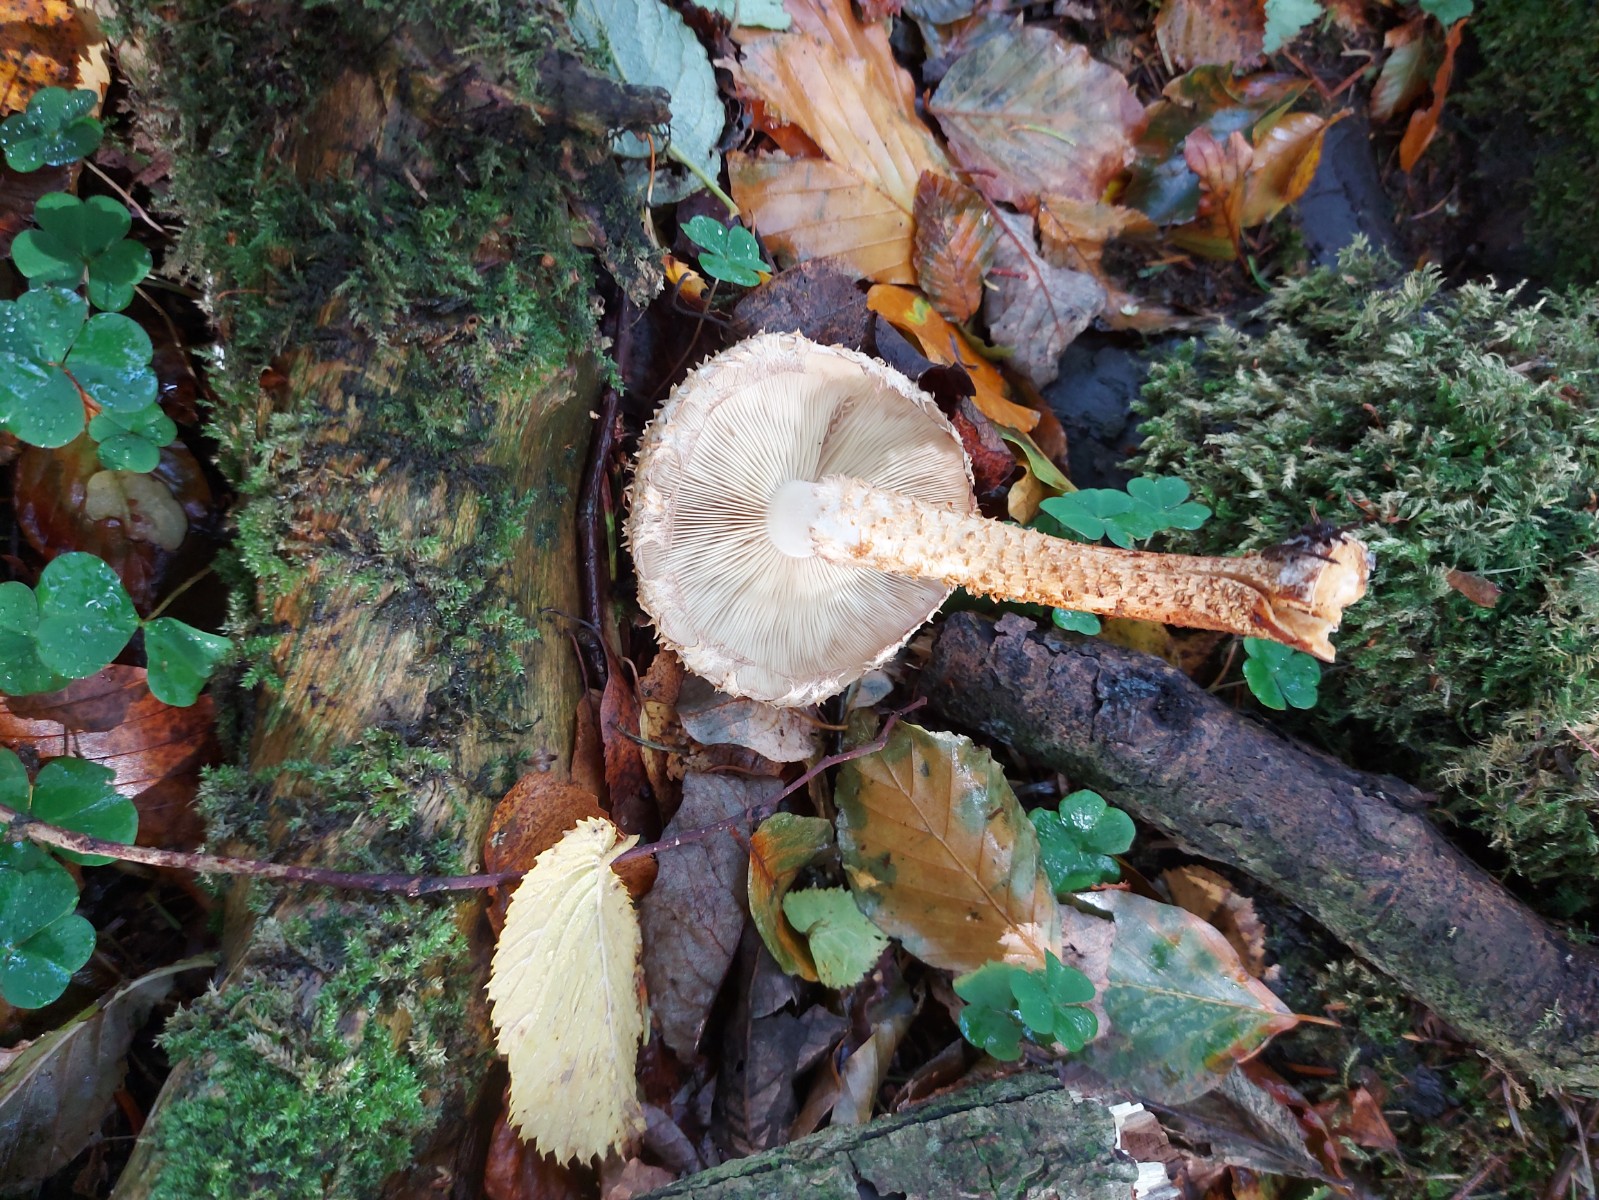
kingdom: Fungi
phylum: Basidiomycota
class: Agaricomycetes
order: Agaricales
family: Strophariaceae
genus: Pholiota
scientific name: Pholiota squarrosa
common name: krumskællet skælhat
